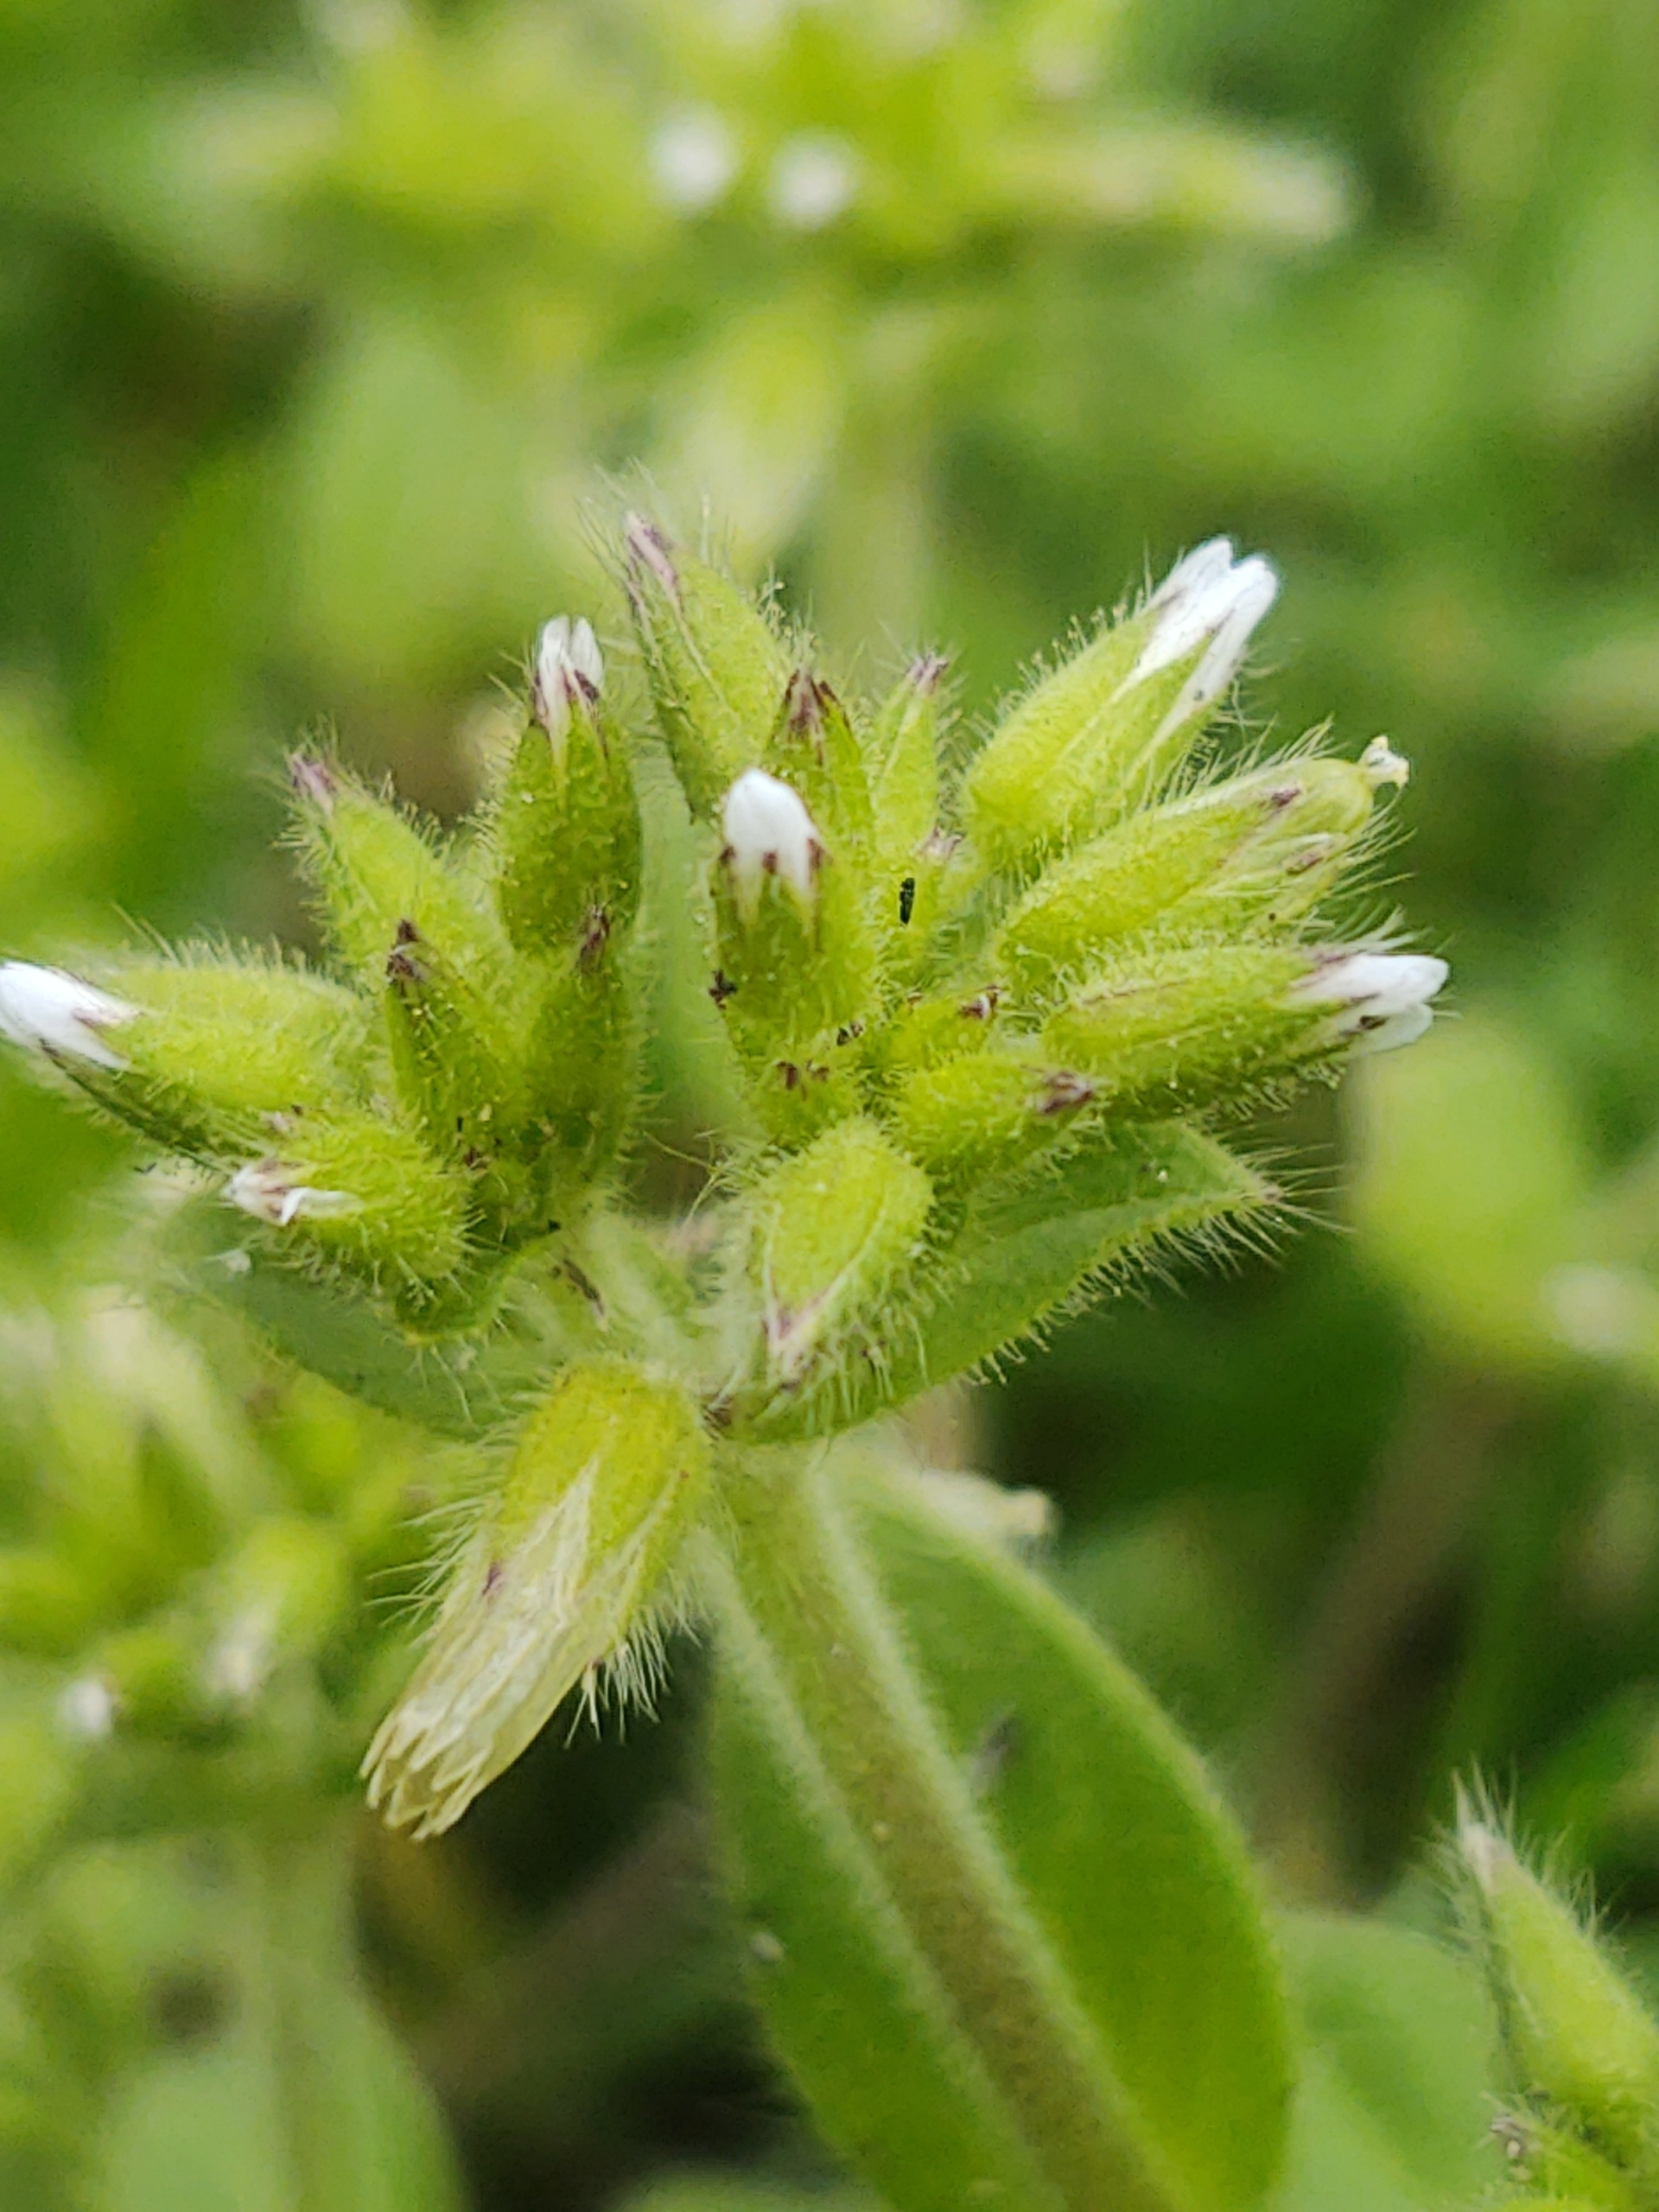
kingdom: Plantae
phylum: Tracheophyta
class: Magnoliopsida
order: Caryophyllales
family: Caryophyllaceae
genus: Cerastium
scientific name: Cerastium glomeratum
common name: Opret hønsetarm
